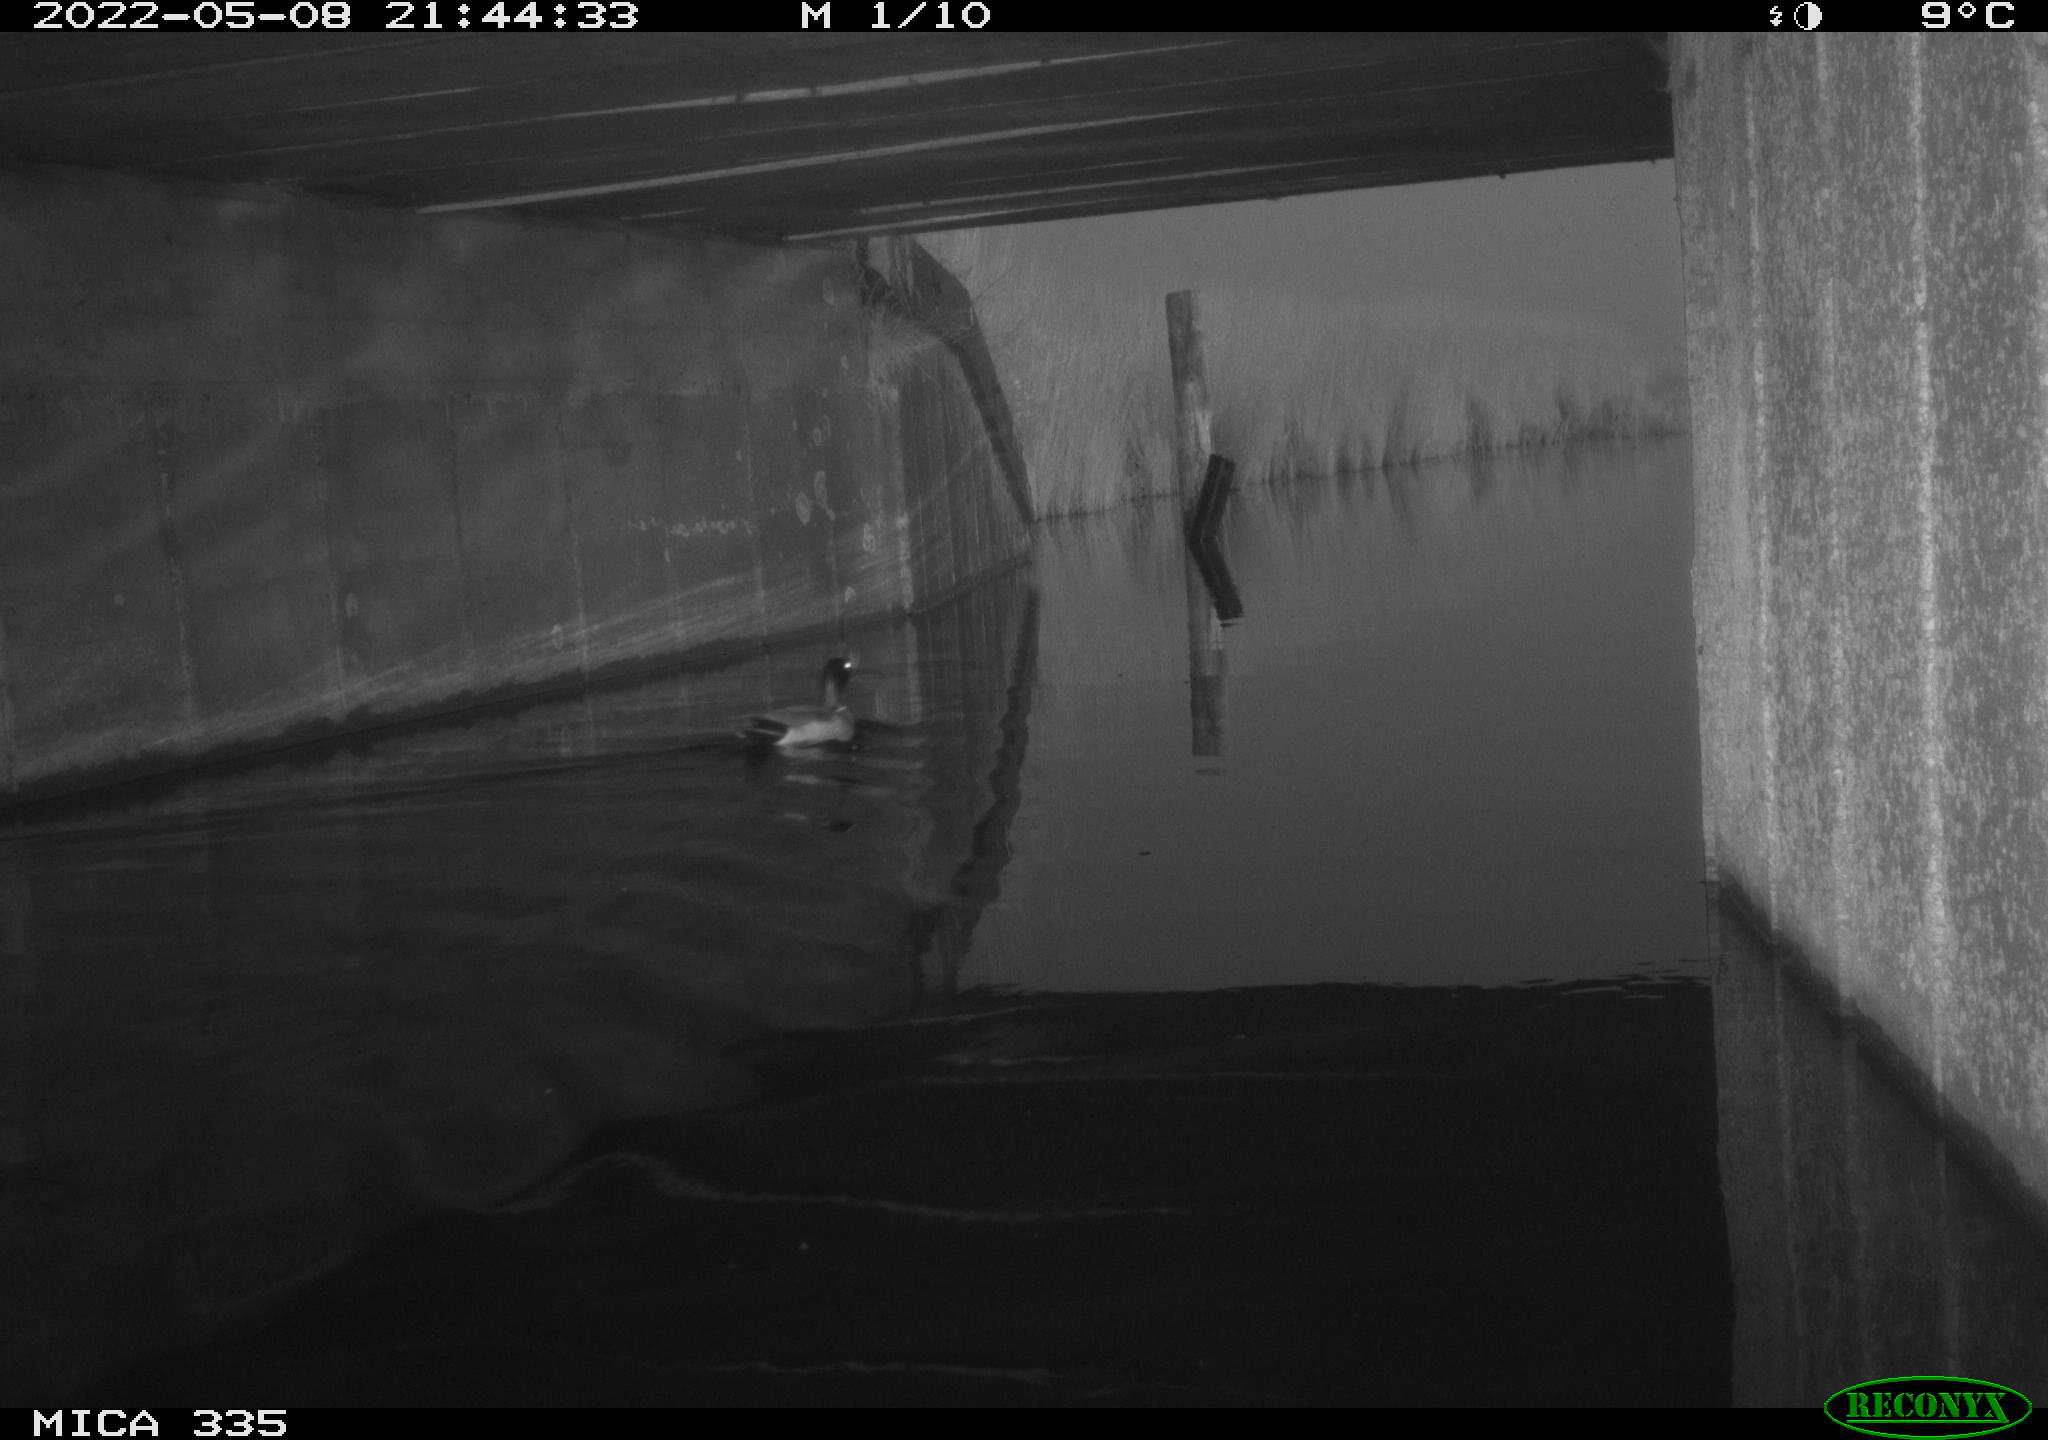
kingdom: Animalia
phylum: Chordata
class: Aves
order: Anseriformes
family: Anatidae
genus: Anas
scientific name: Anas platyrhynchos
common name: Mallard
